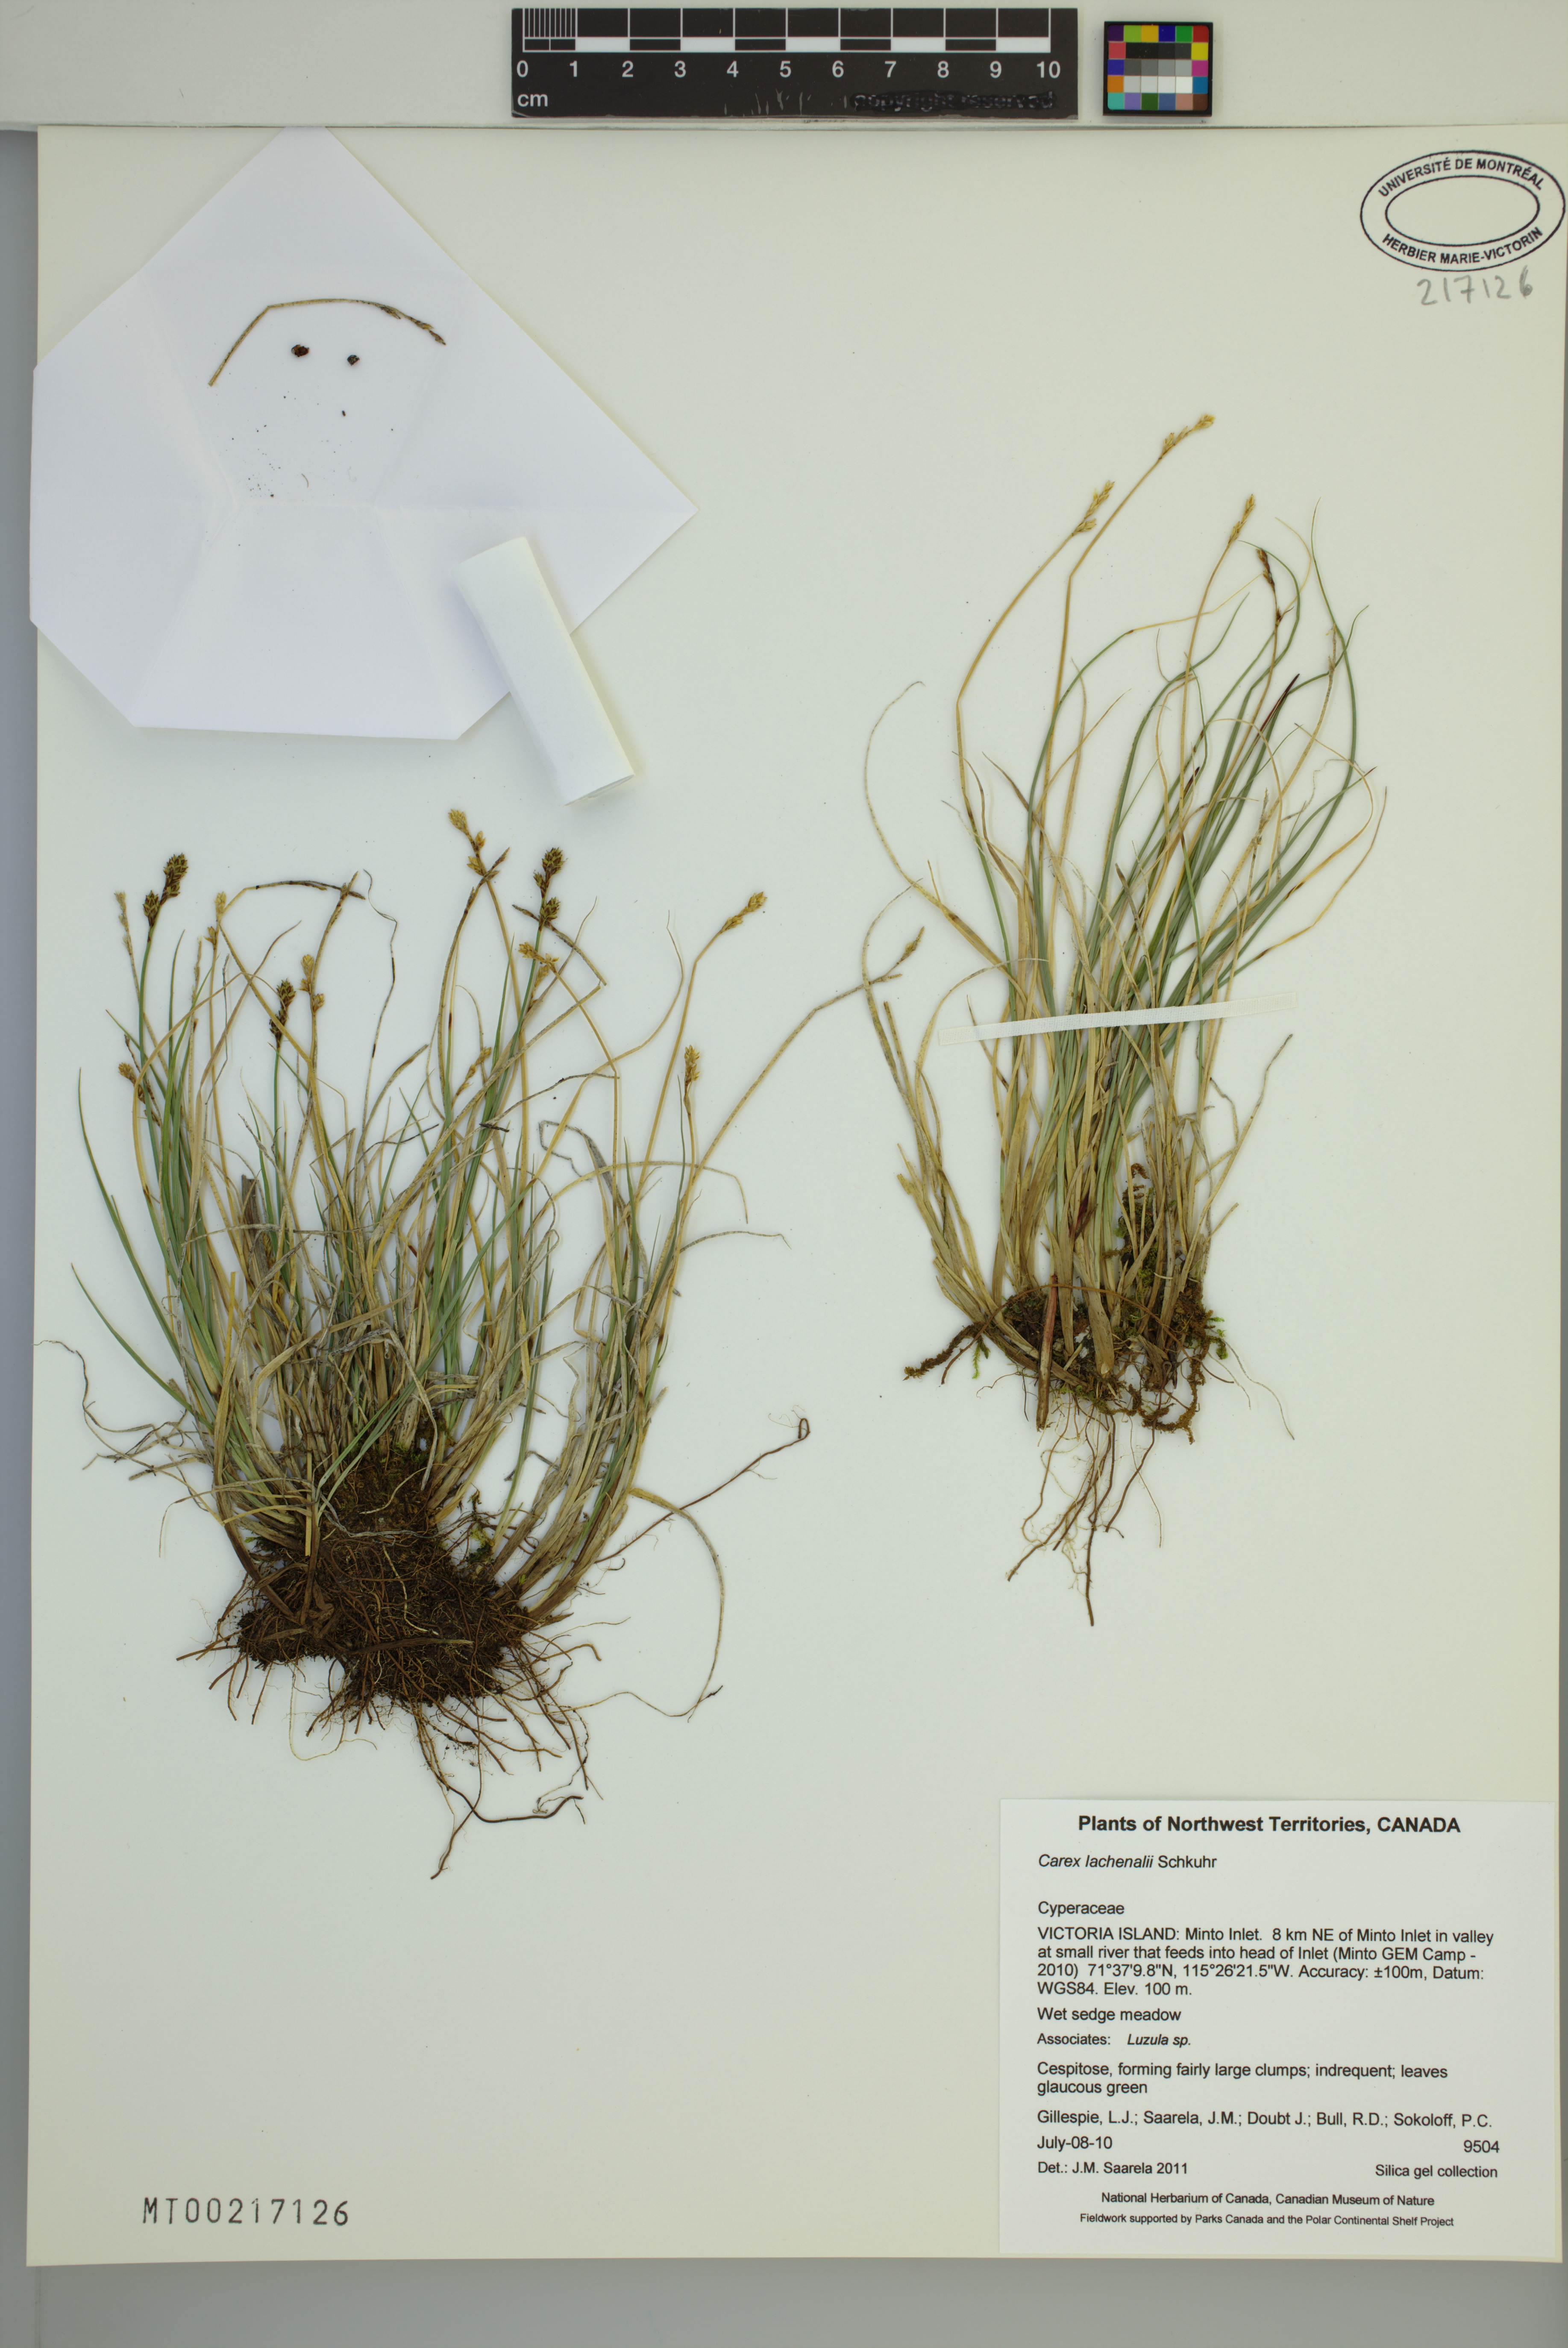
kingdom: Plantae
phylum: Tracheophyta
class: Liliopsida
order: Poales
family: Cyperaceae
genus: Carex
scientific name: Carex lachenalii
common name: Hare's-foot sedge
